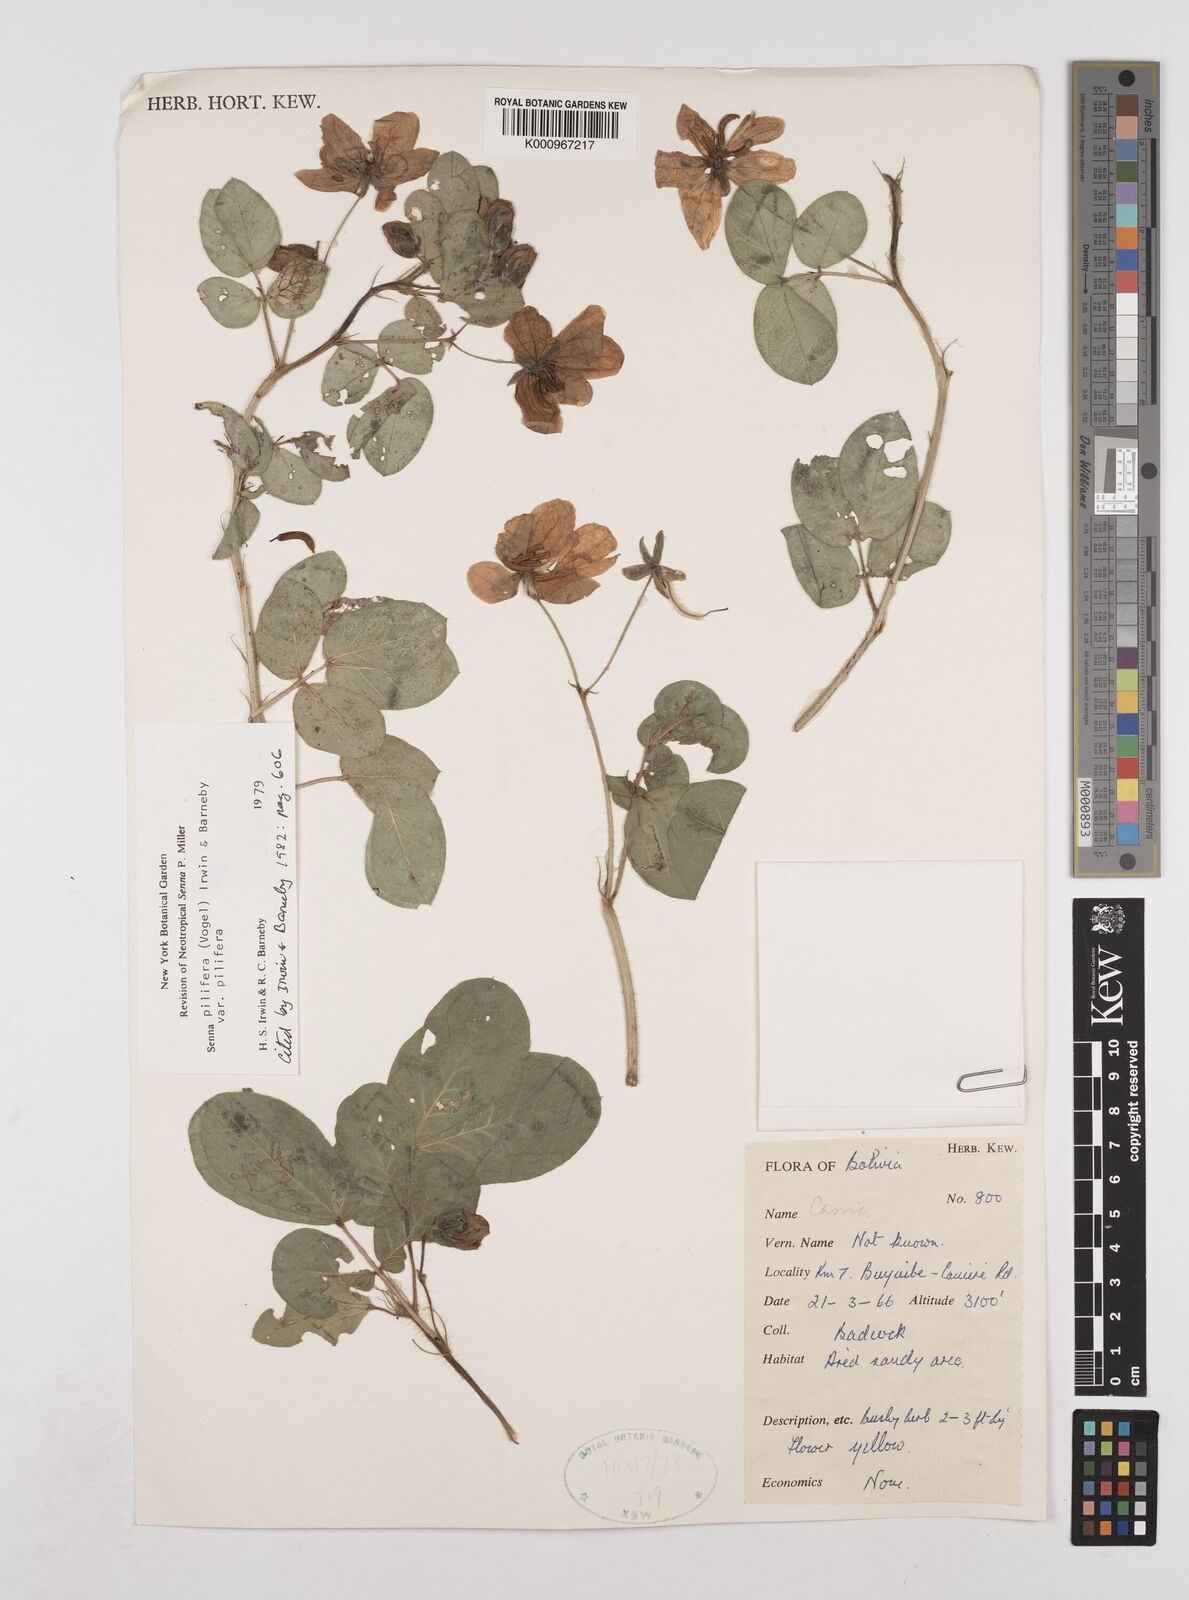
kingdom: Plantae
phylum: Tracheophyta
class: Magnoliopsida
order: Fabales
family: Fabaceae
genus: Senna
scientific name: Senna pilifera
